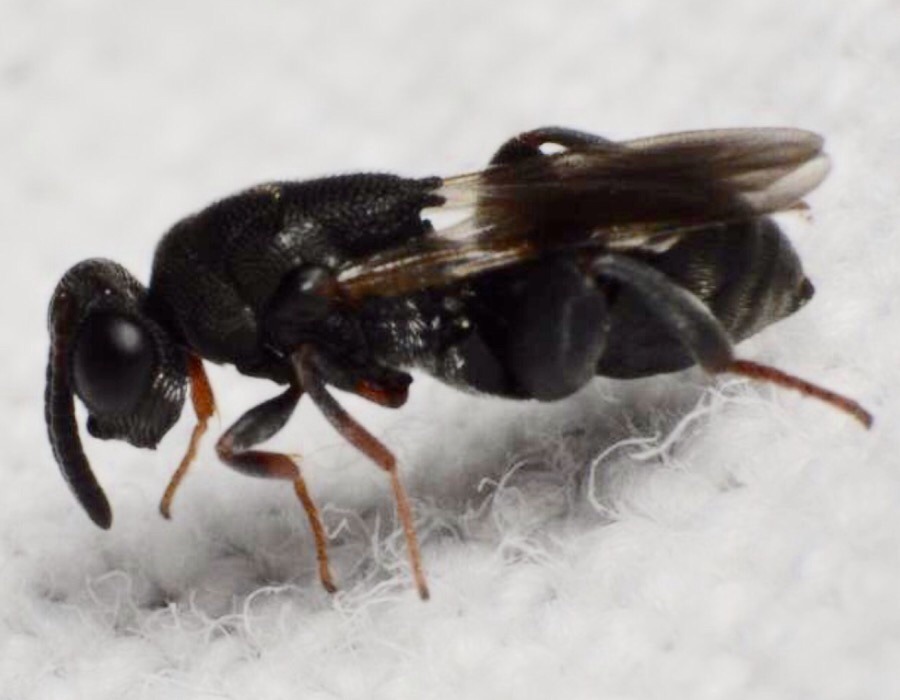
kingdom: Animalia
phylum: Arthropoda
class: Insecta
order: Hymenoptera
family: Chalcididae
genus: Haltichella
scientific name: Haltichella rufipes
